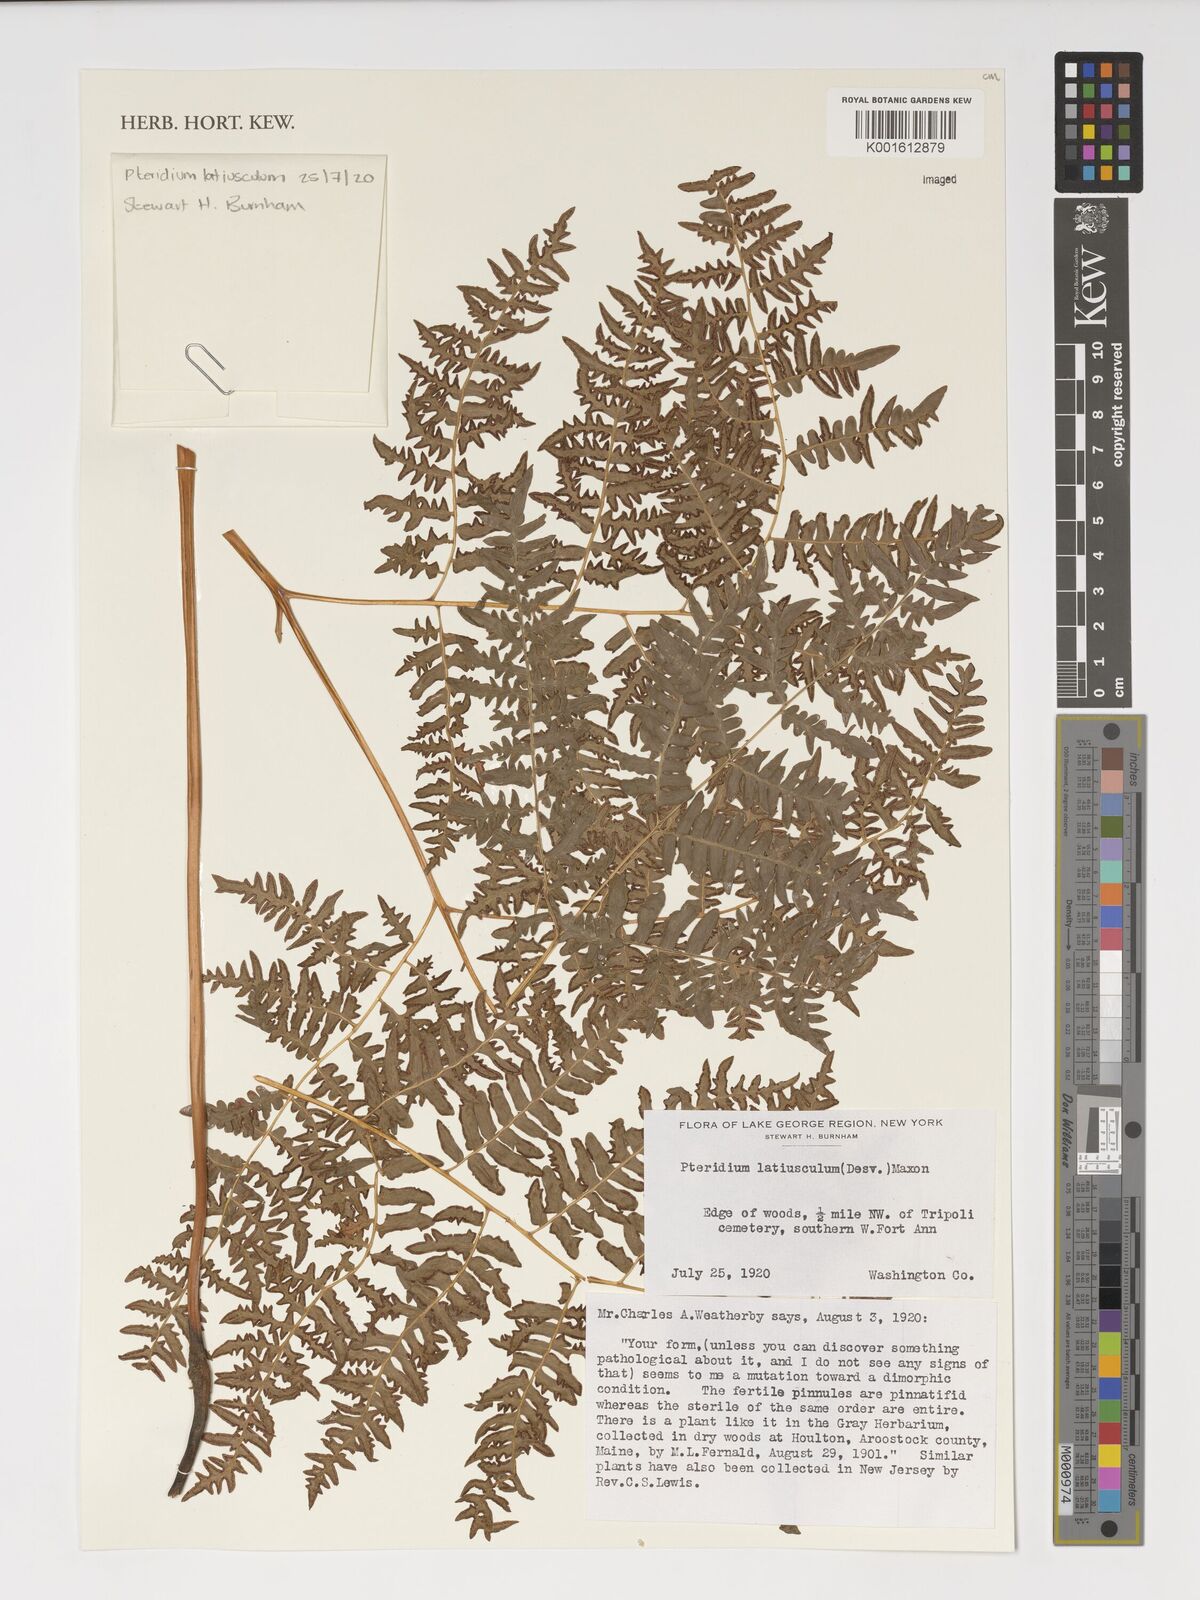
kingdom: Plantae
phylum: Tracheophyta
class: Polypodiopsida
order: Polypodiales
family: Dennstaedtiaceae
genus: Pteridium
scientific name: Pteridium aquilinum
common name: Bracken
